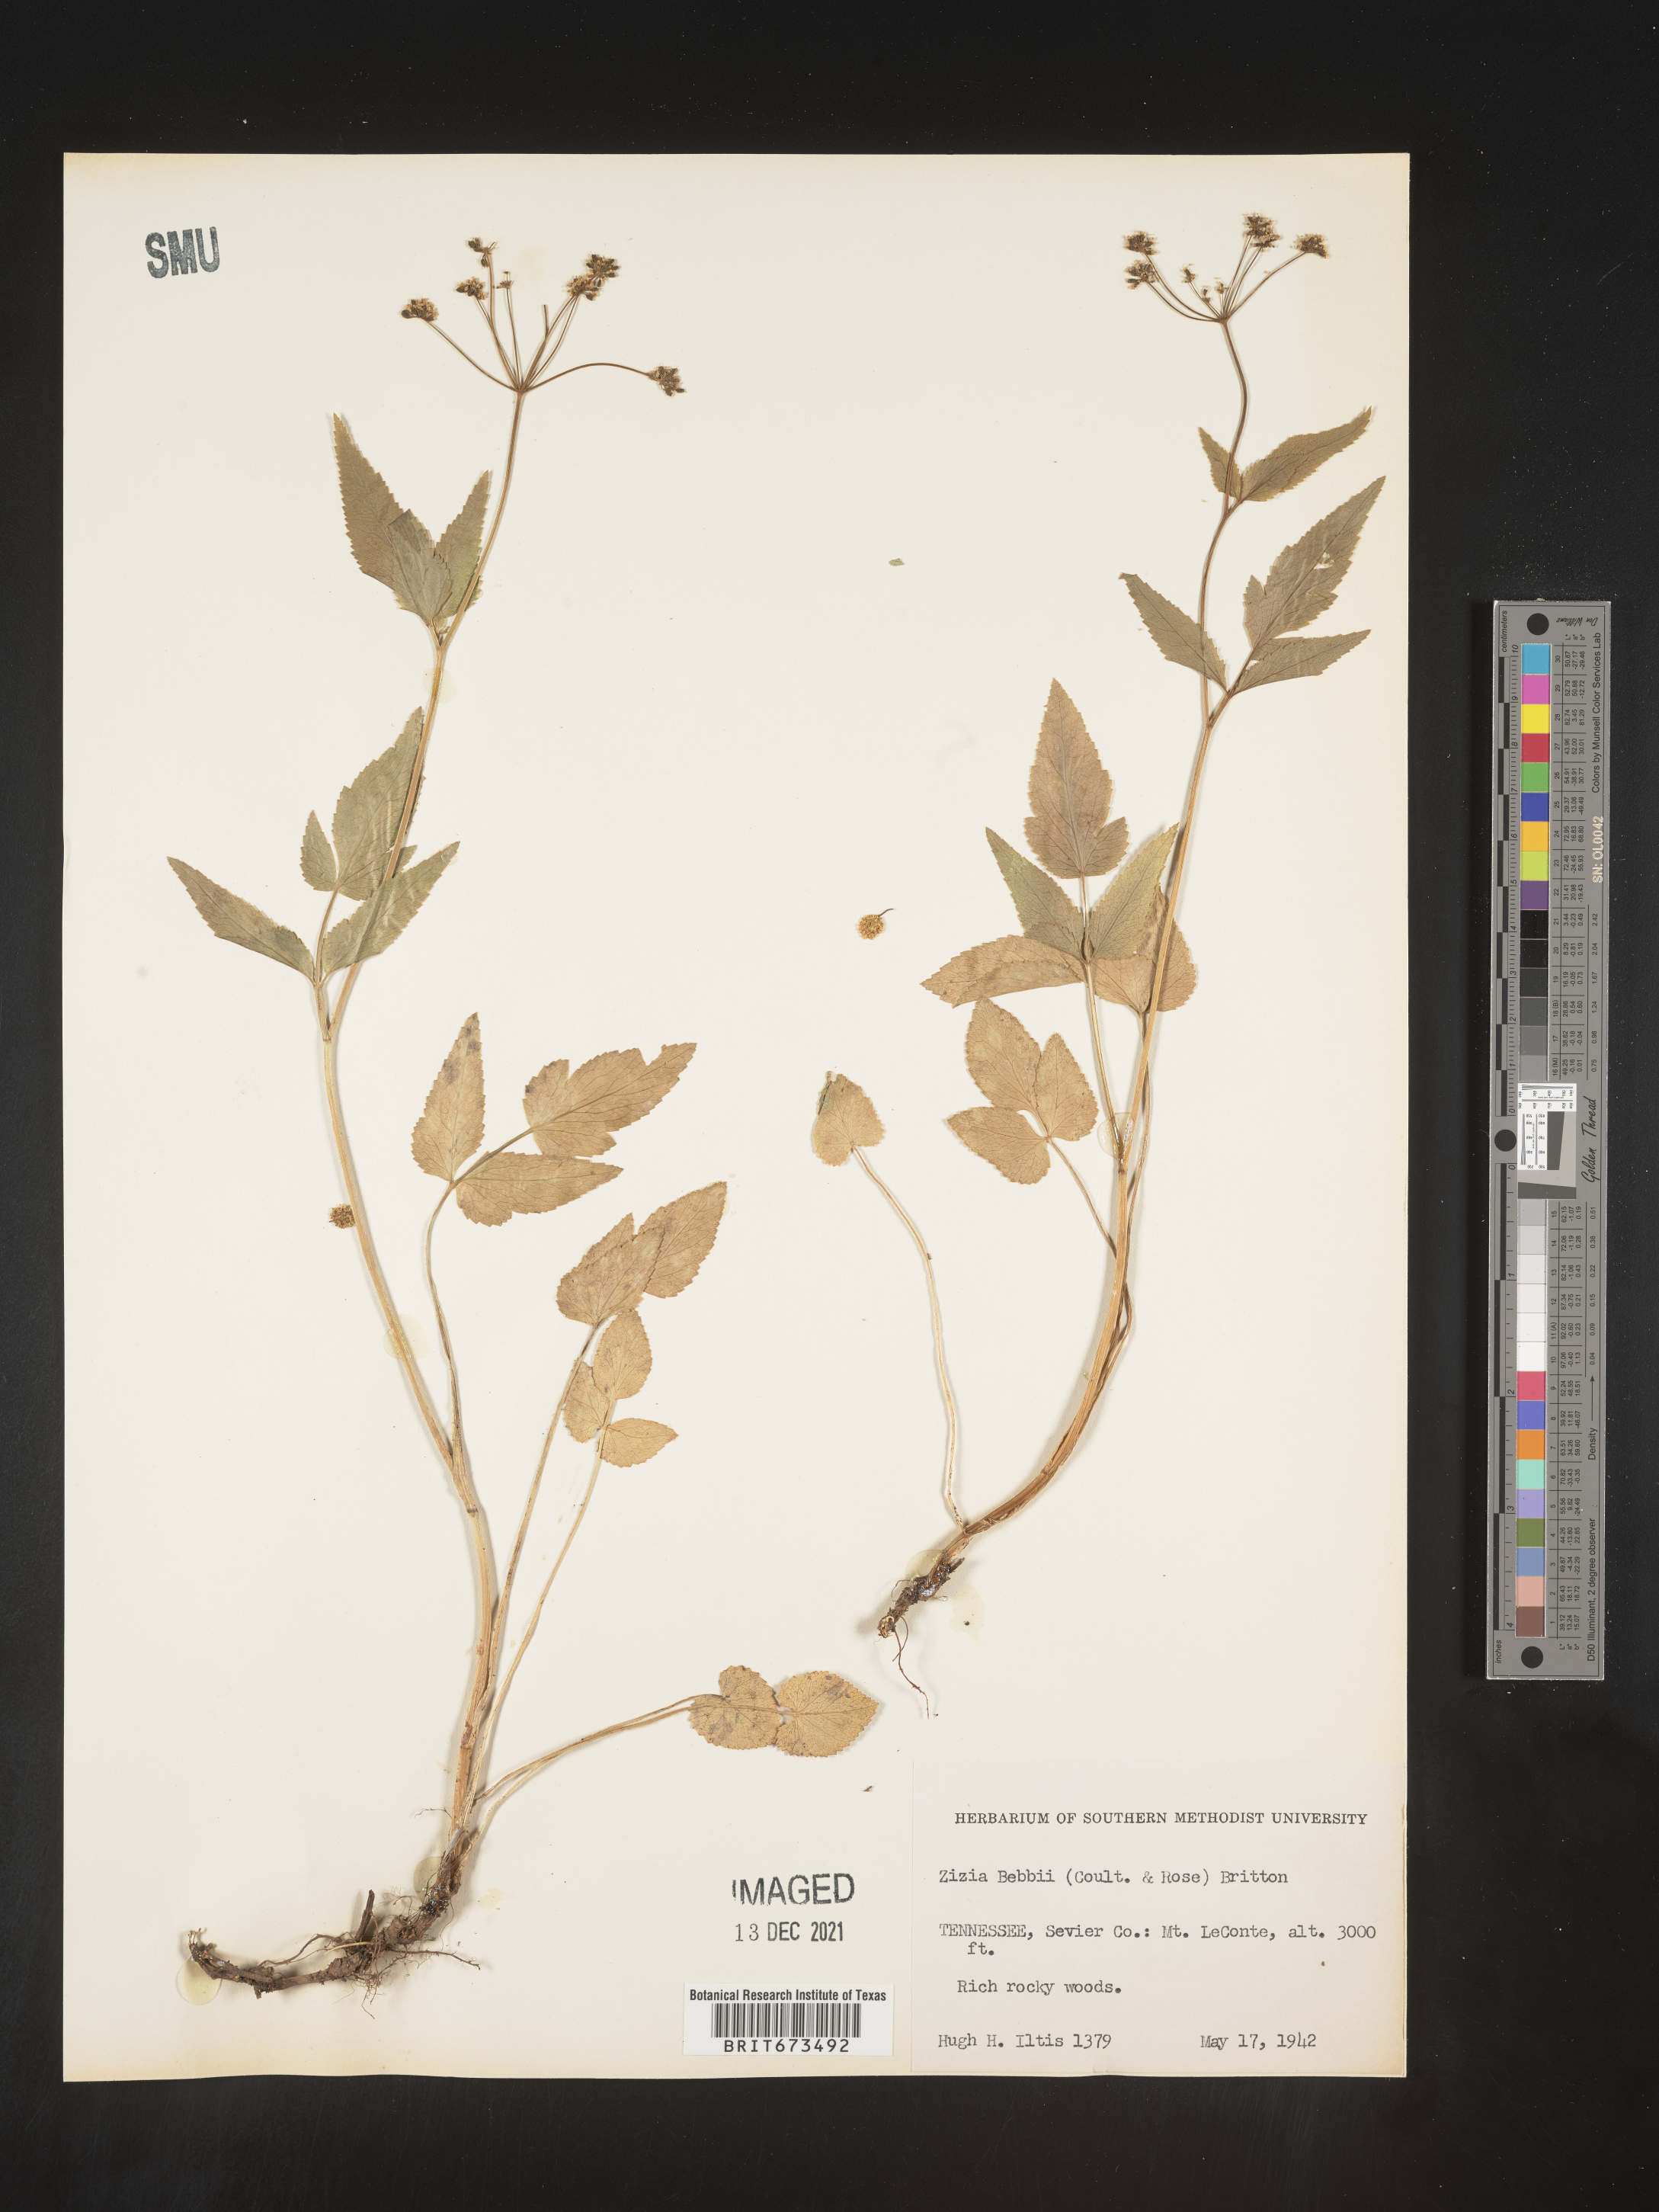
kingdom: Plantae
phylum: Tracheophyta
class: Magnoliopsida
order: Apiales
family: Apiaceae
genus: Zizia
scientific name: Zizia trifoliata
